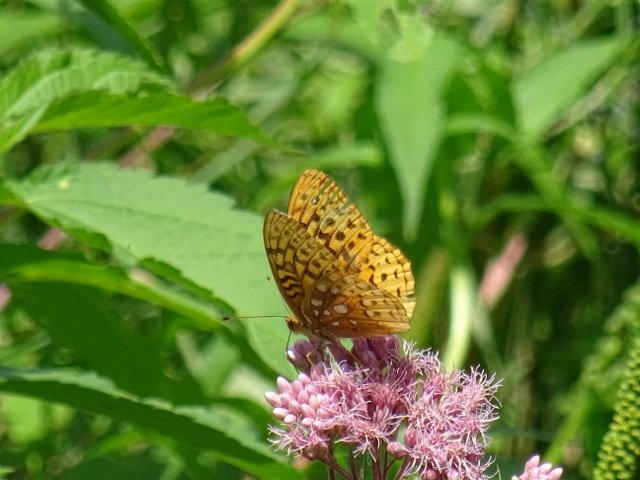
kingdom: Animalia
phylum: Arthropoda
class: Insecta
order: Lepidoptera
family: Nymphalidae
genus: Speyeria
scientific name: Speyeria cybele
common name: Great Spangled Fritillary
